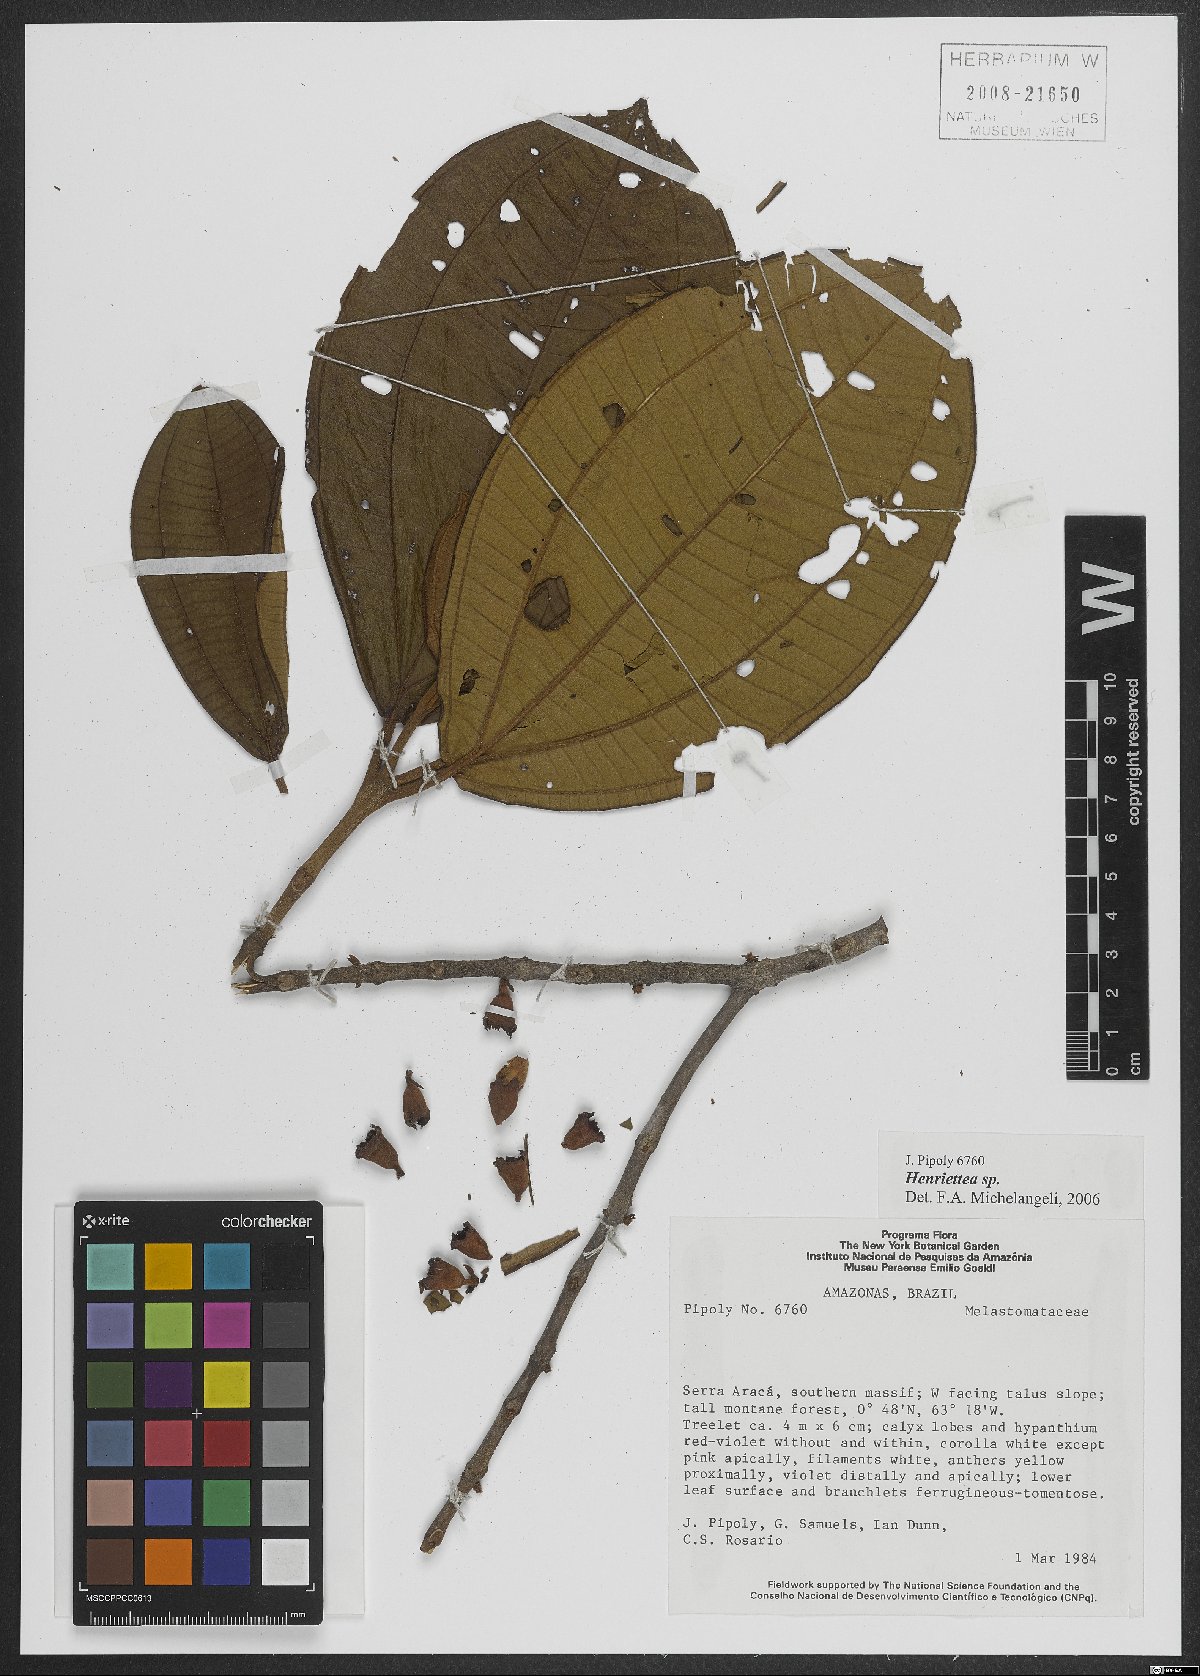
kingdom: Plantae
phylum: Tracheophyta
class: Magnoliopsida
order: Myrtales
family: Melastomataceae
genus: Henriettea
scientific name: Henriettea tuberculosa
